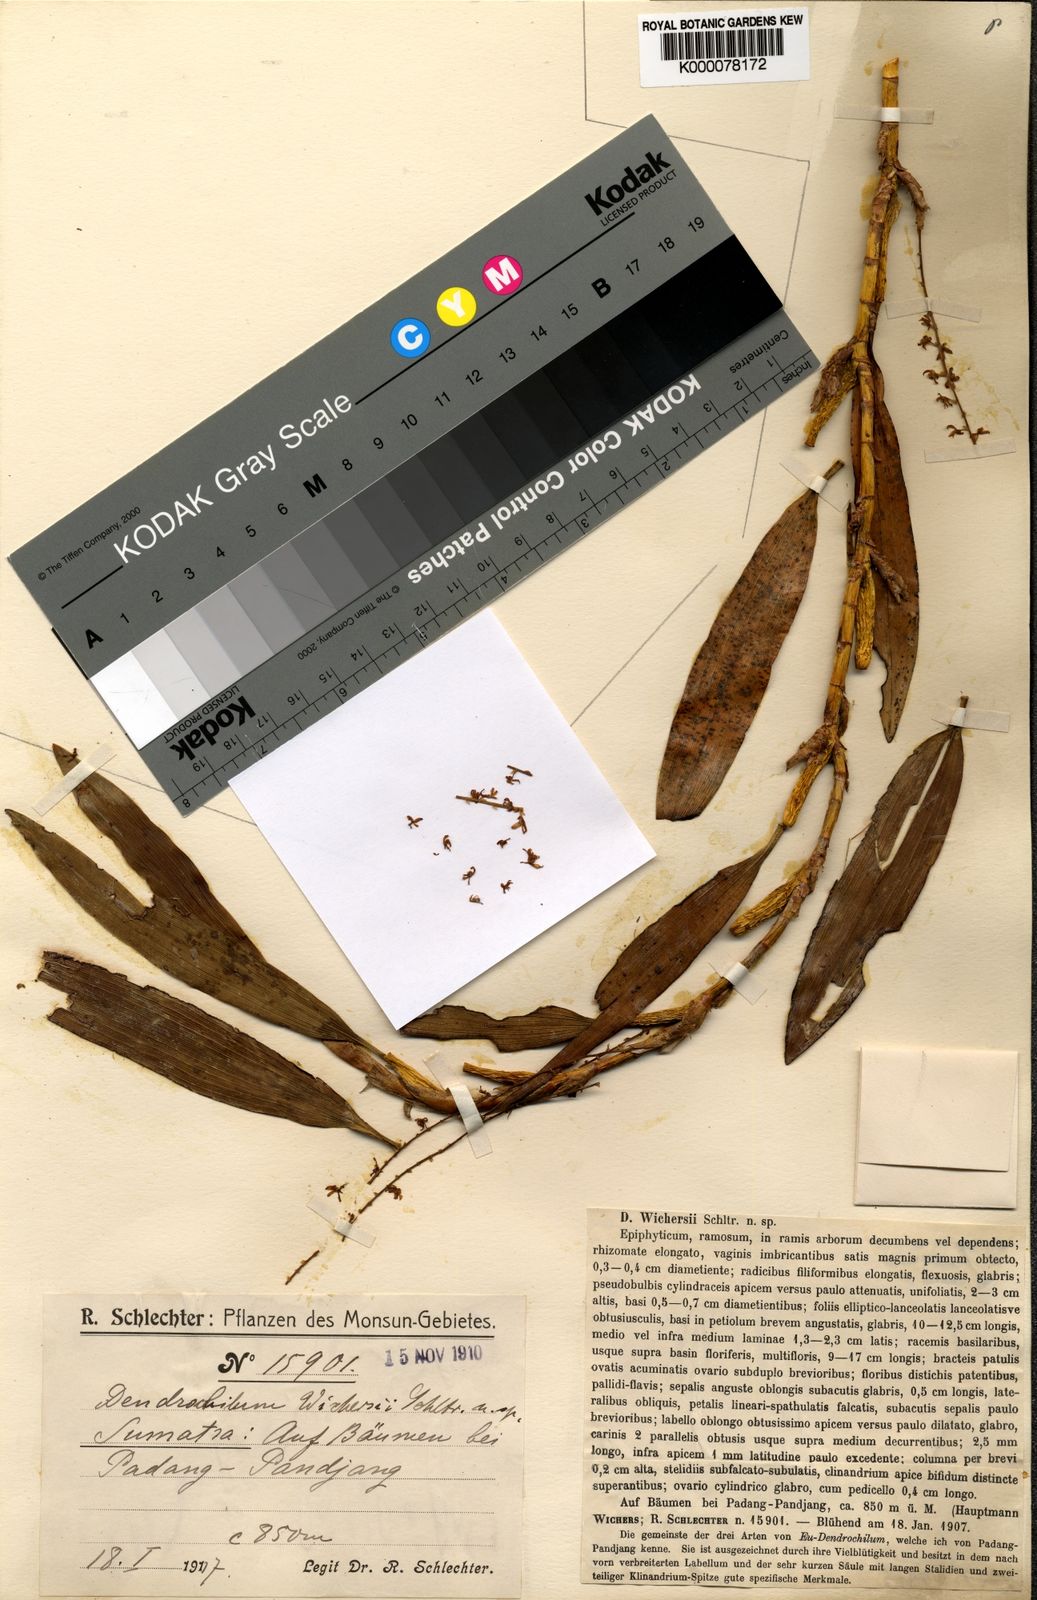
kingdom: Plantae
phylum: Tracheophyta
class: Liliopsida
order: Asparagales
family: Orchidaceae
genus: Coelogyne
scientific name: Coelogyne wichersii
